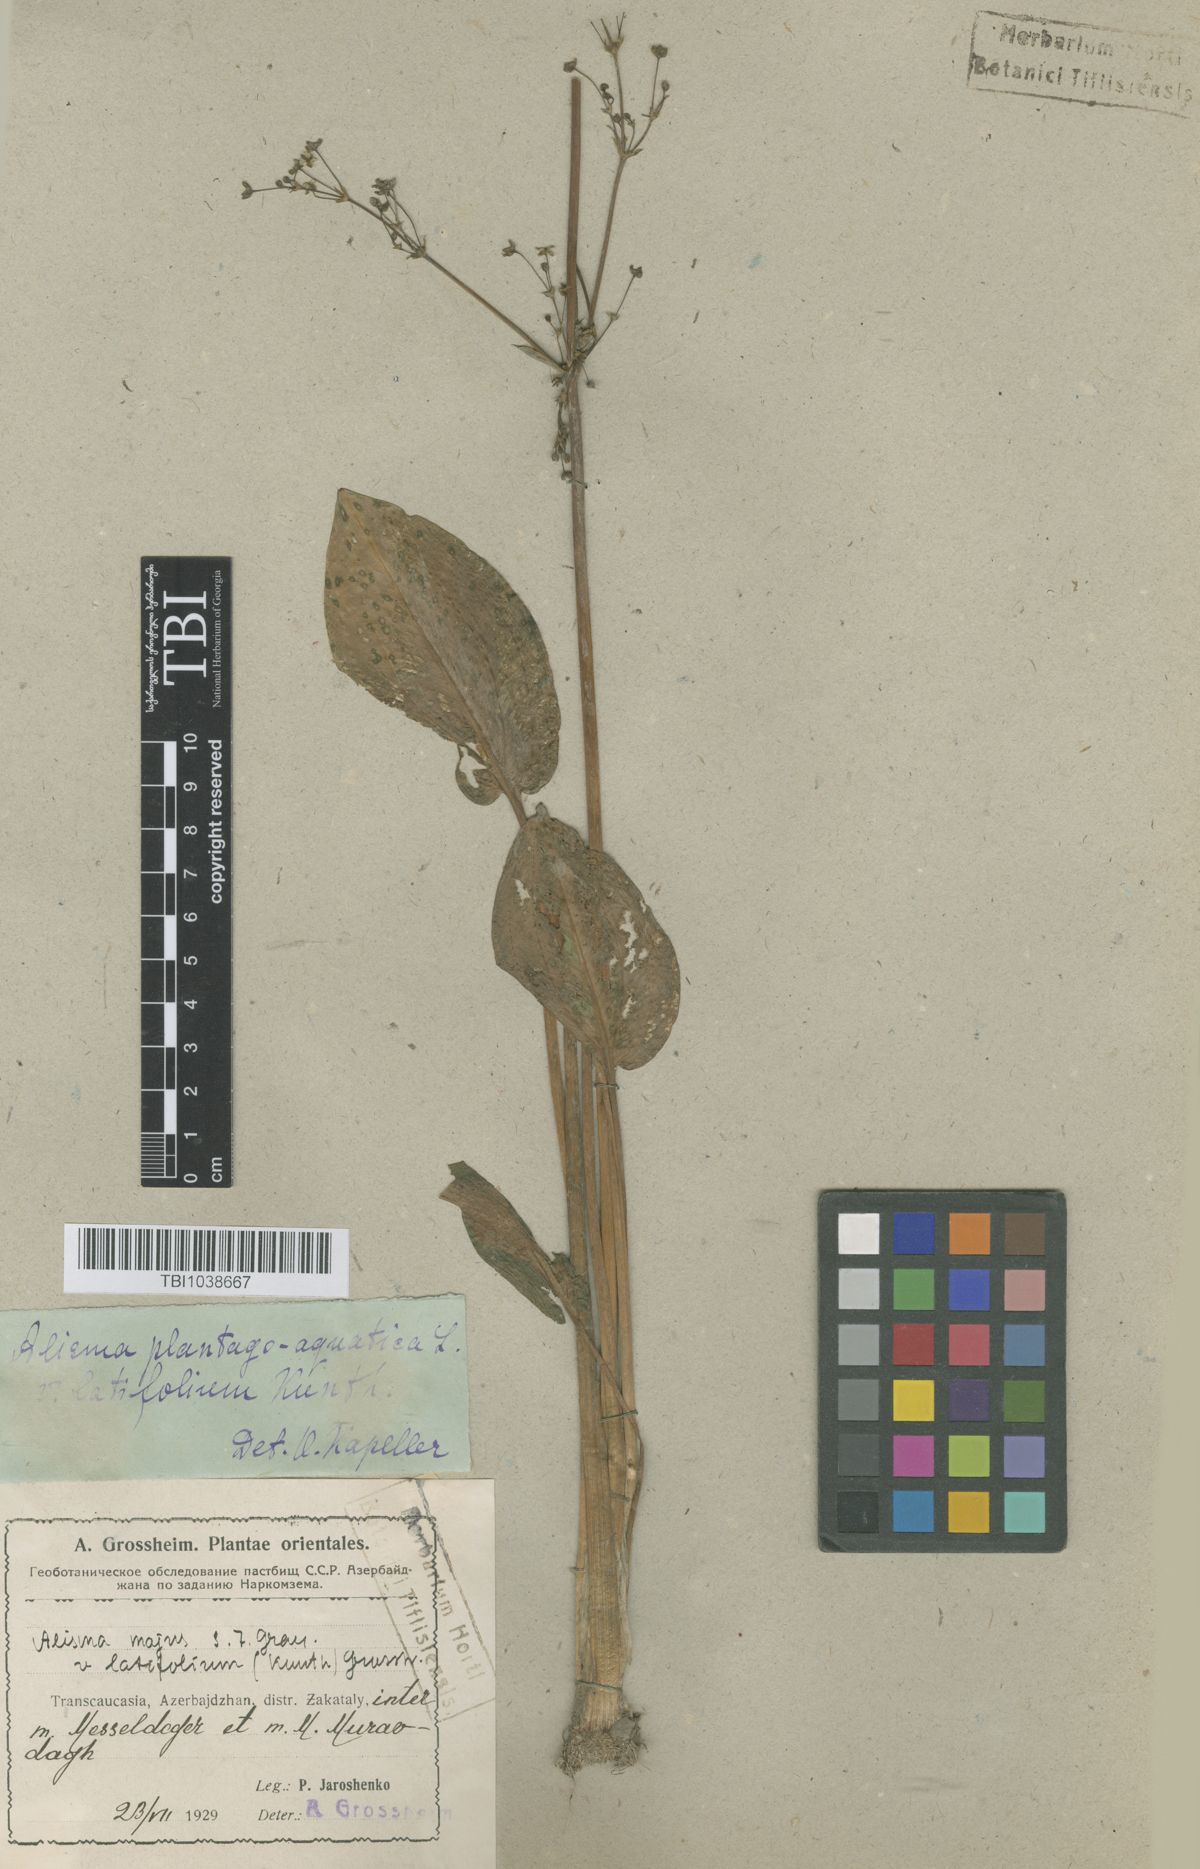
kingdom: Plantae
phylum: Tracheophyta
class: Liliopsida
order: Alismatales
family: Alismataceae
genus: Alisma
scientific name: Alisma plantago-aquatica
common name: Water-plantain
